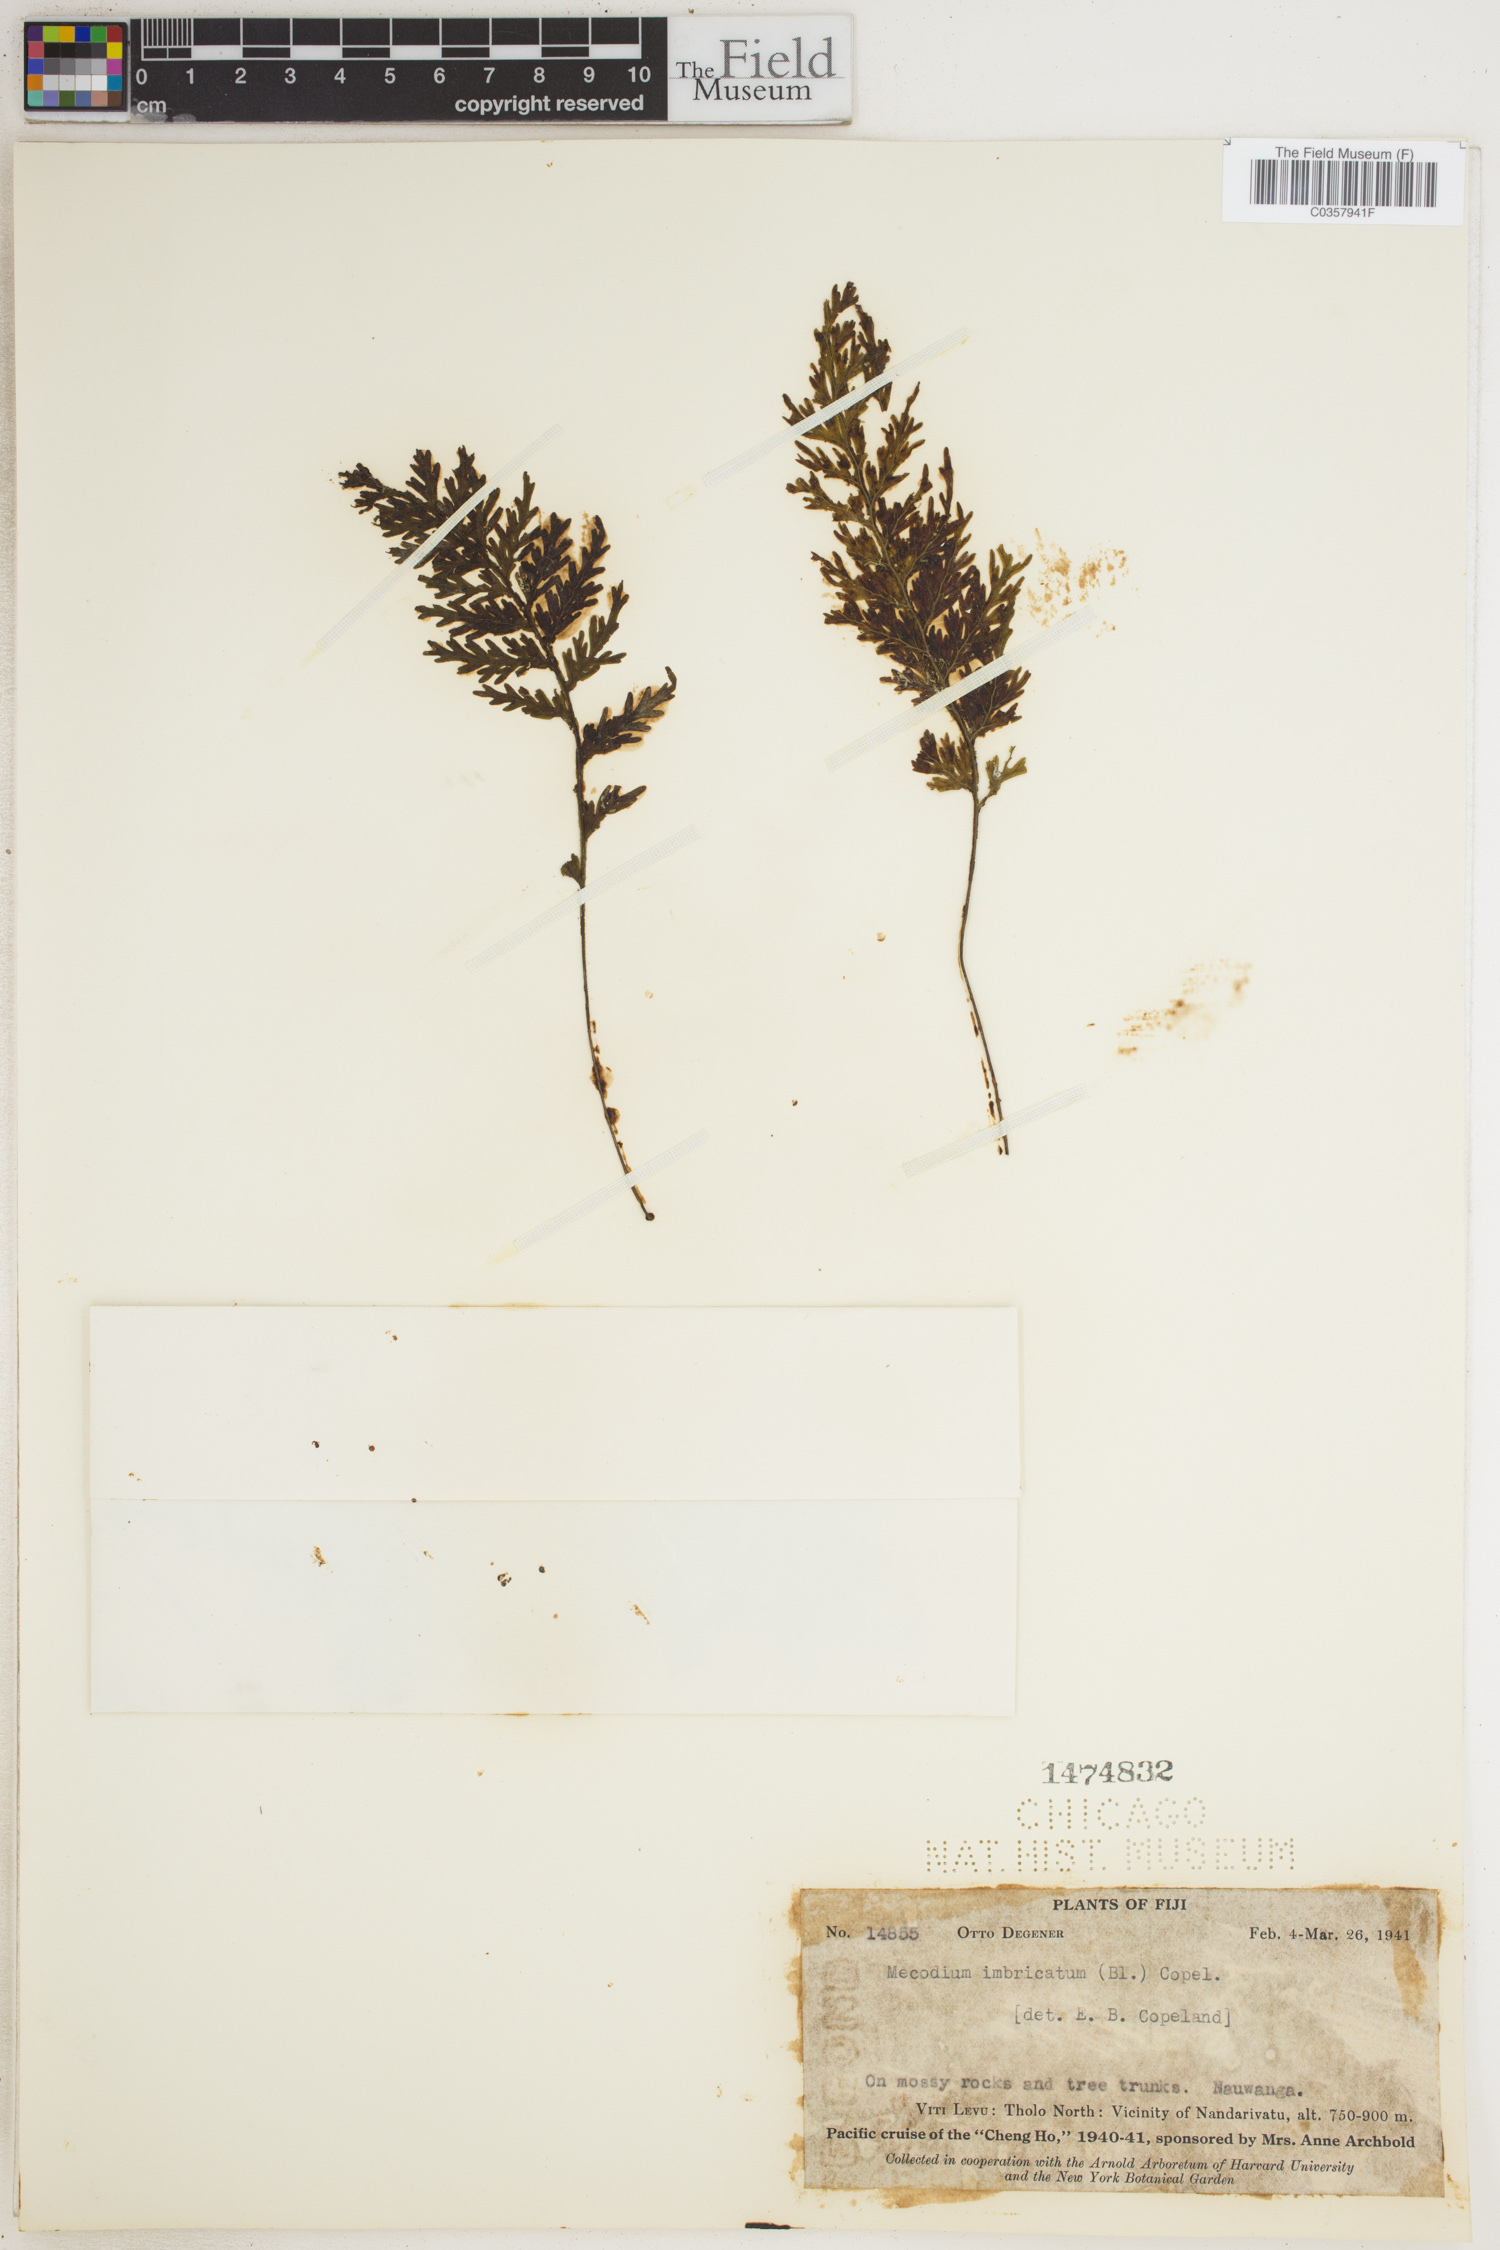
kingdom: Plantae
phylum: Tracheophyta
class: Polypodiopsida
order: Hymenophyllales
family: Hymenophyllaceae
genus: Hymenophyllum
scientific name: Hymenophyllum imbricatum
